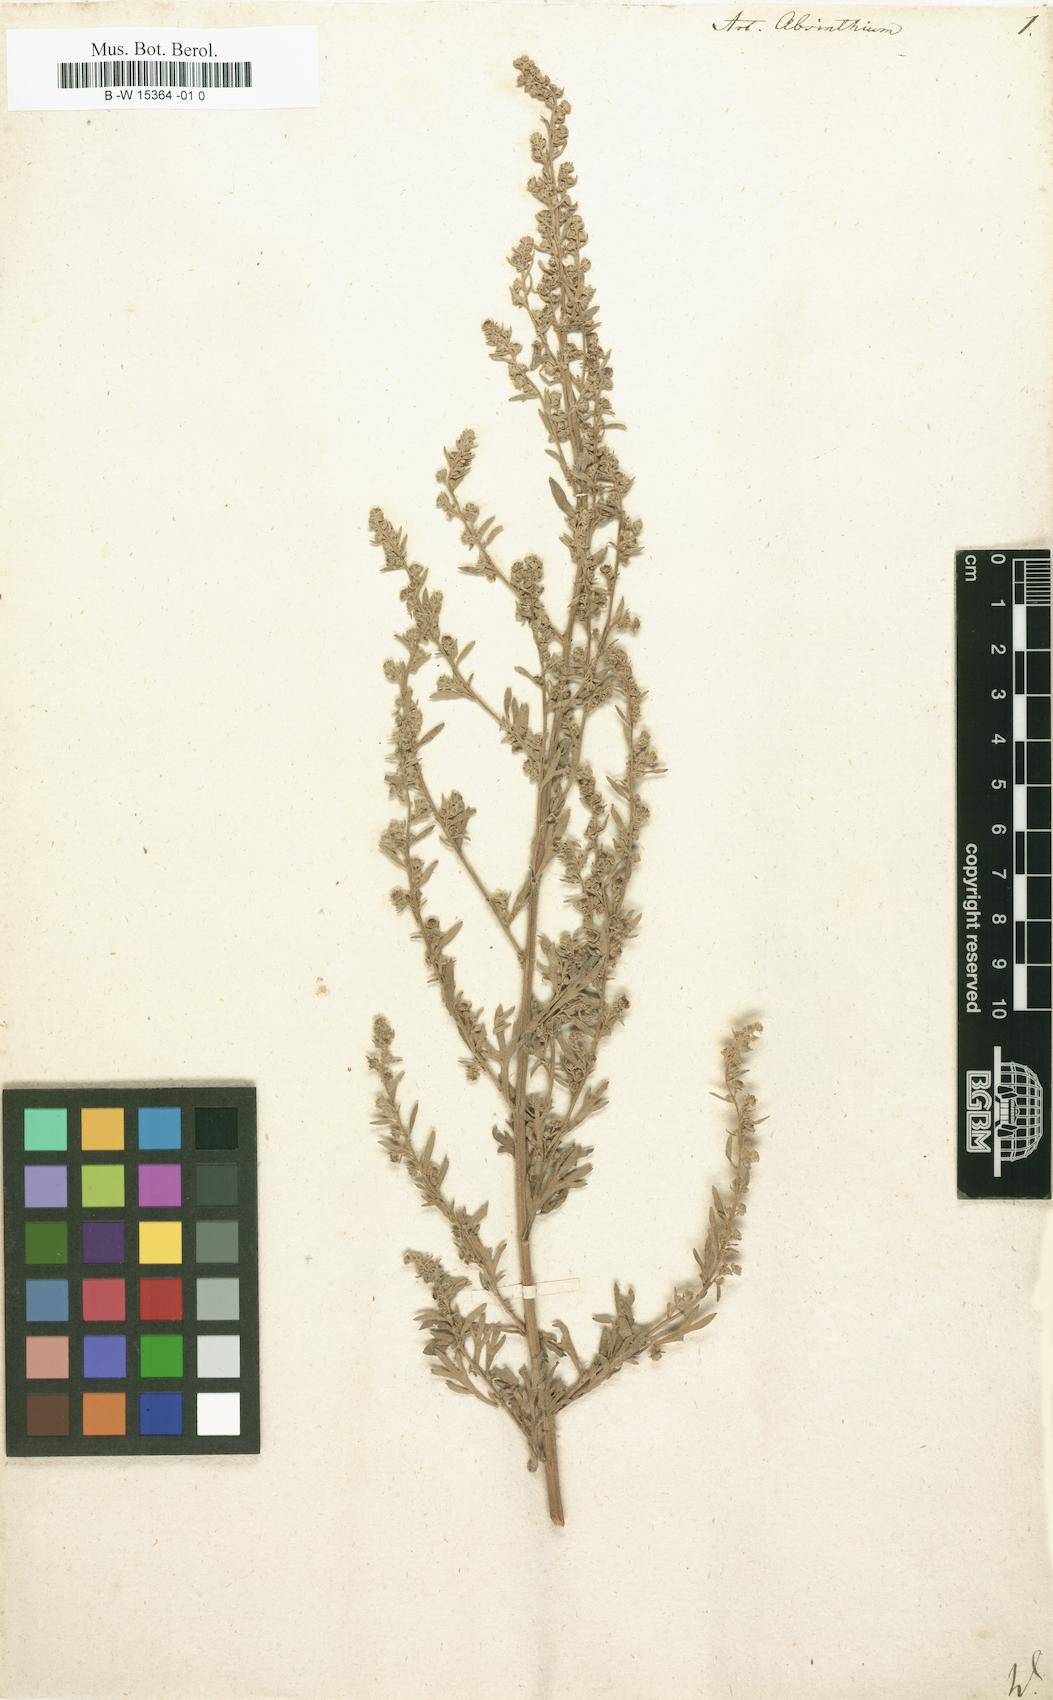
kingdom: Plantae
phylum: Tracheophyta
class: Magnoliopsida
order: Asterales
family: Asteraceae
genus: Artemisia
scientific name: Artemisia absinthium
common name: Wormwood
